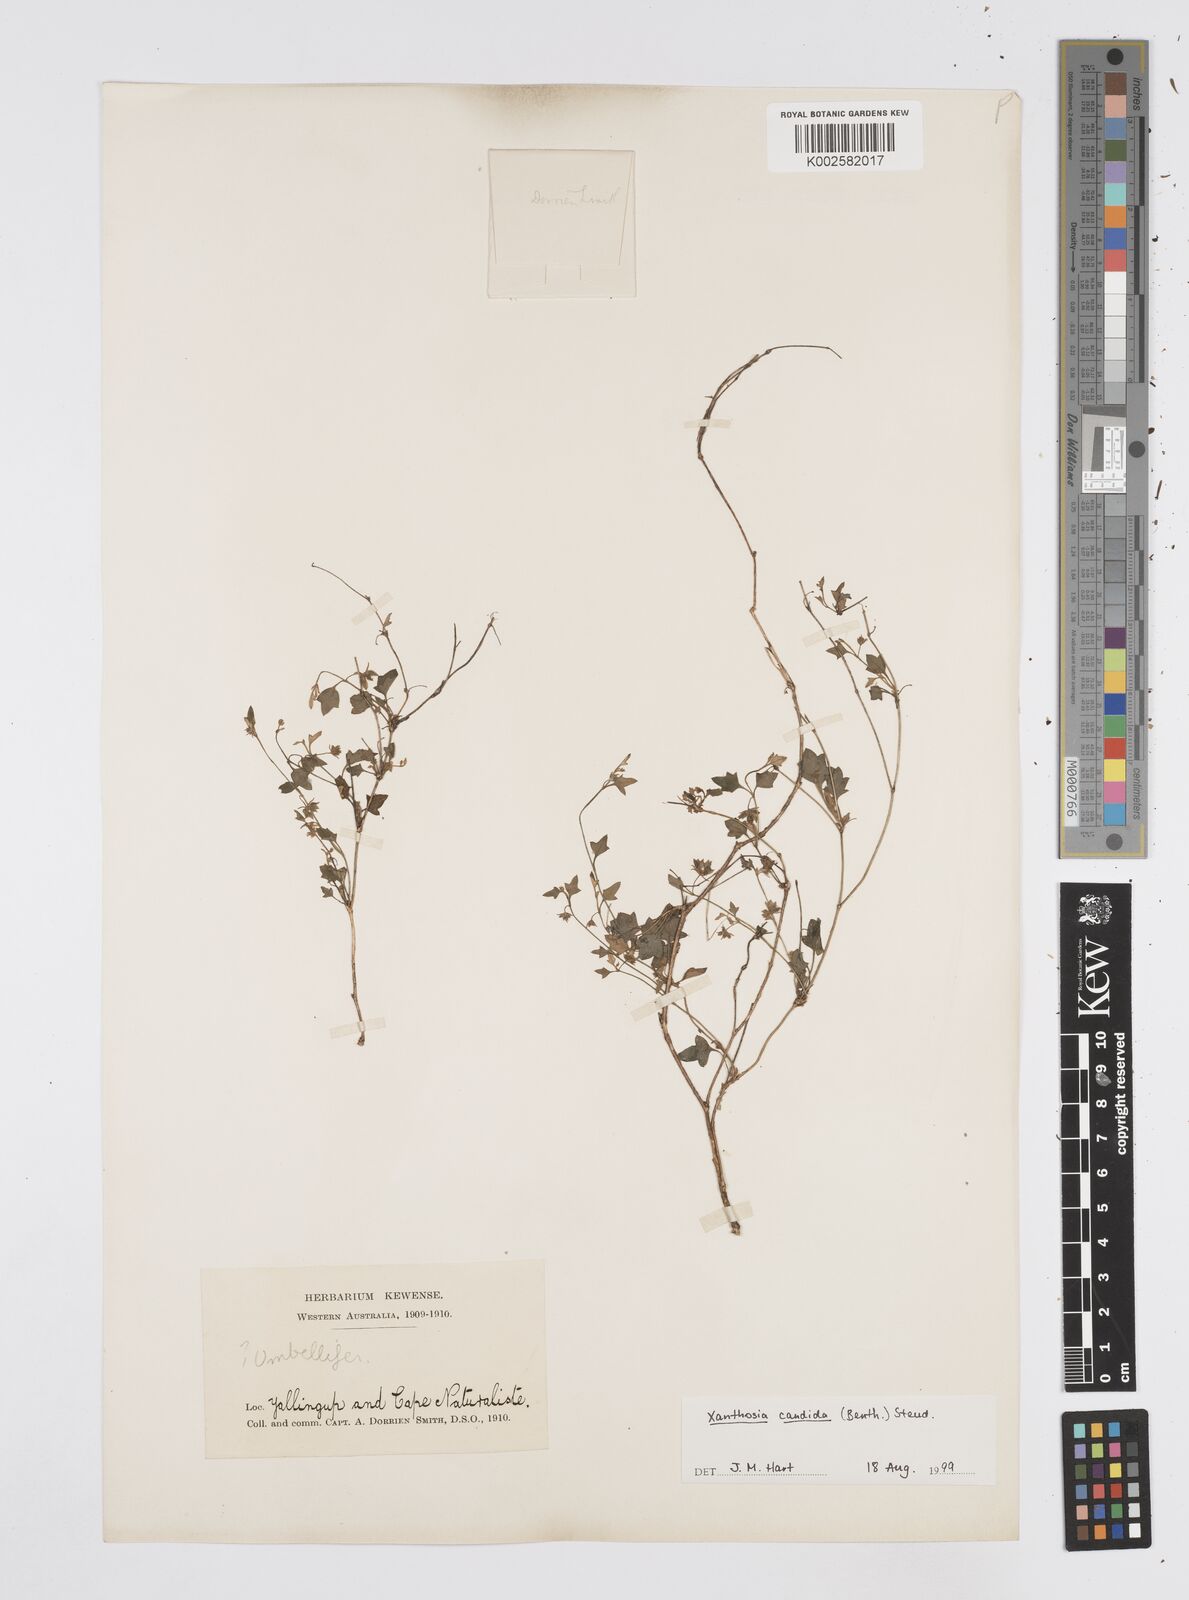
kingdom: Plantae
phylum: Tracheophyta
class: Magnoliopsida
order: Apiales
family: Apiaceae
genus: Xanthosia
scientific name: Xanthosia candida
